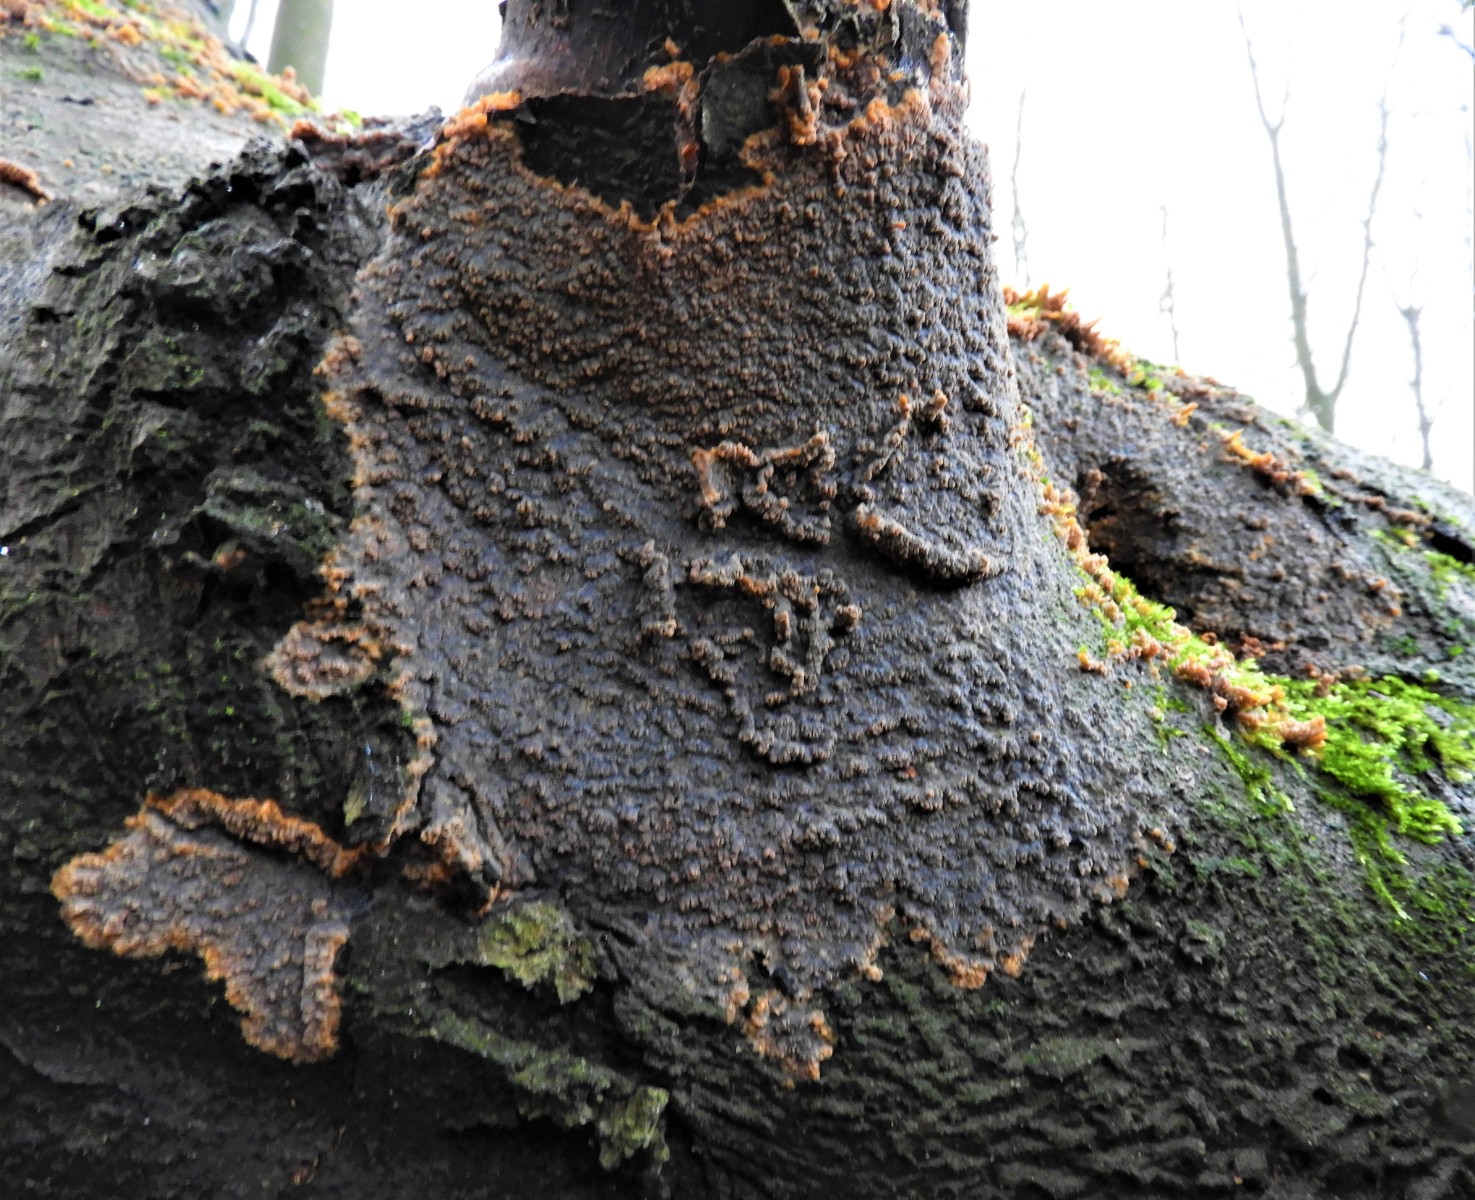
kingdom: Fungi
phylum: Basidiomycota
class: Agaricomycetes
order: Polyporales
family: Meruliaceae
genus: Phlebia
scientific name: Phlebia radiata
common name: stråle-åresvamp
